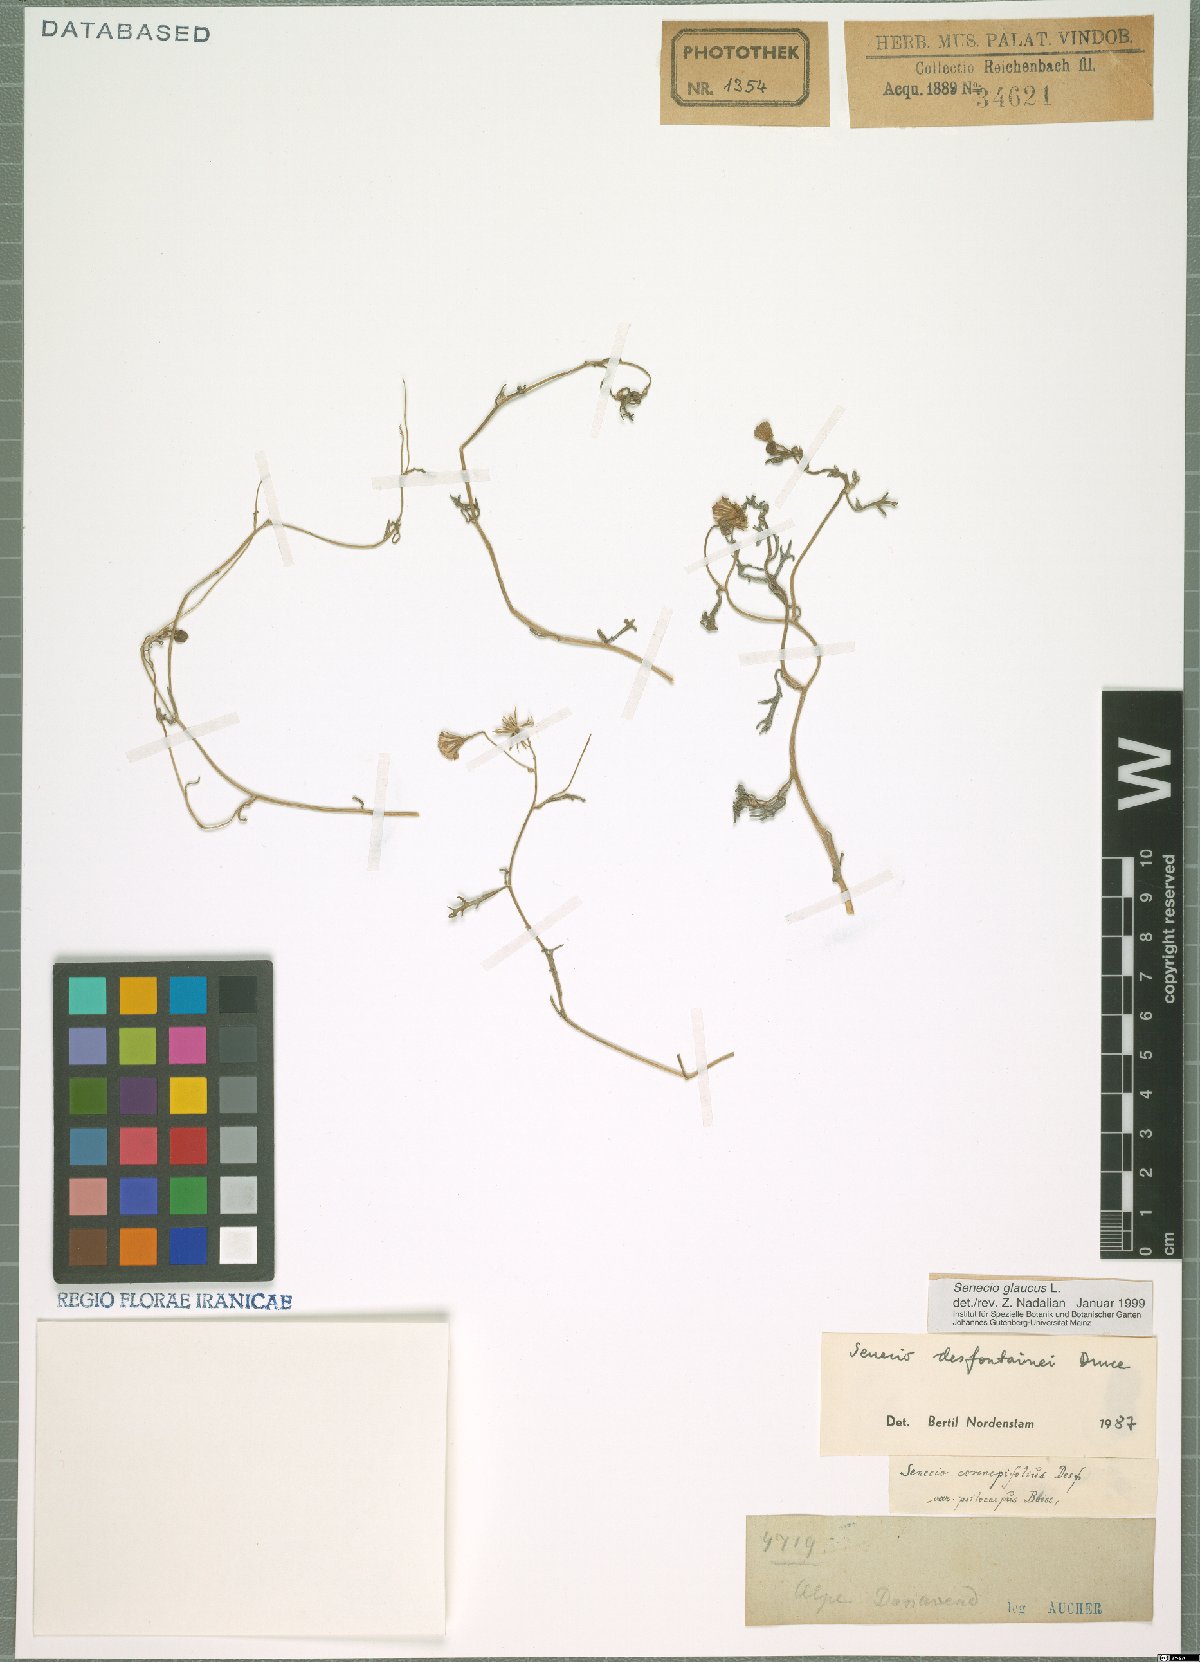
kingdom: Plantae
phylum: Tracheophyta
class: Magnoliopsida
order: Asterales
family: Asteraceae
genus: Senecio
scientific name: Senecio glaucus
